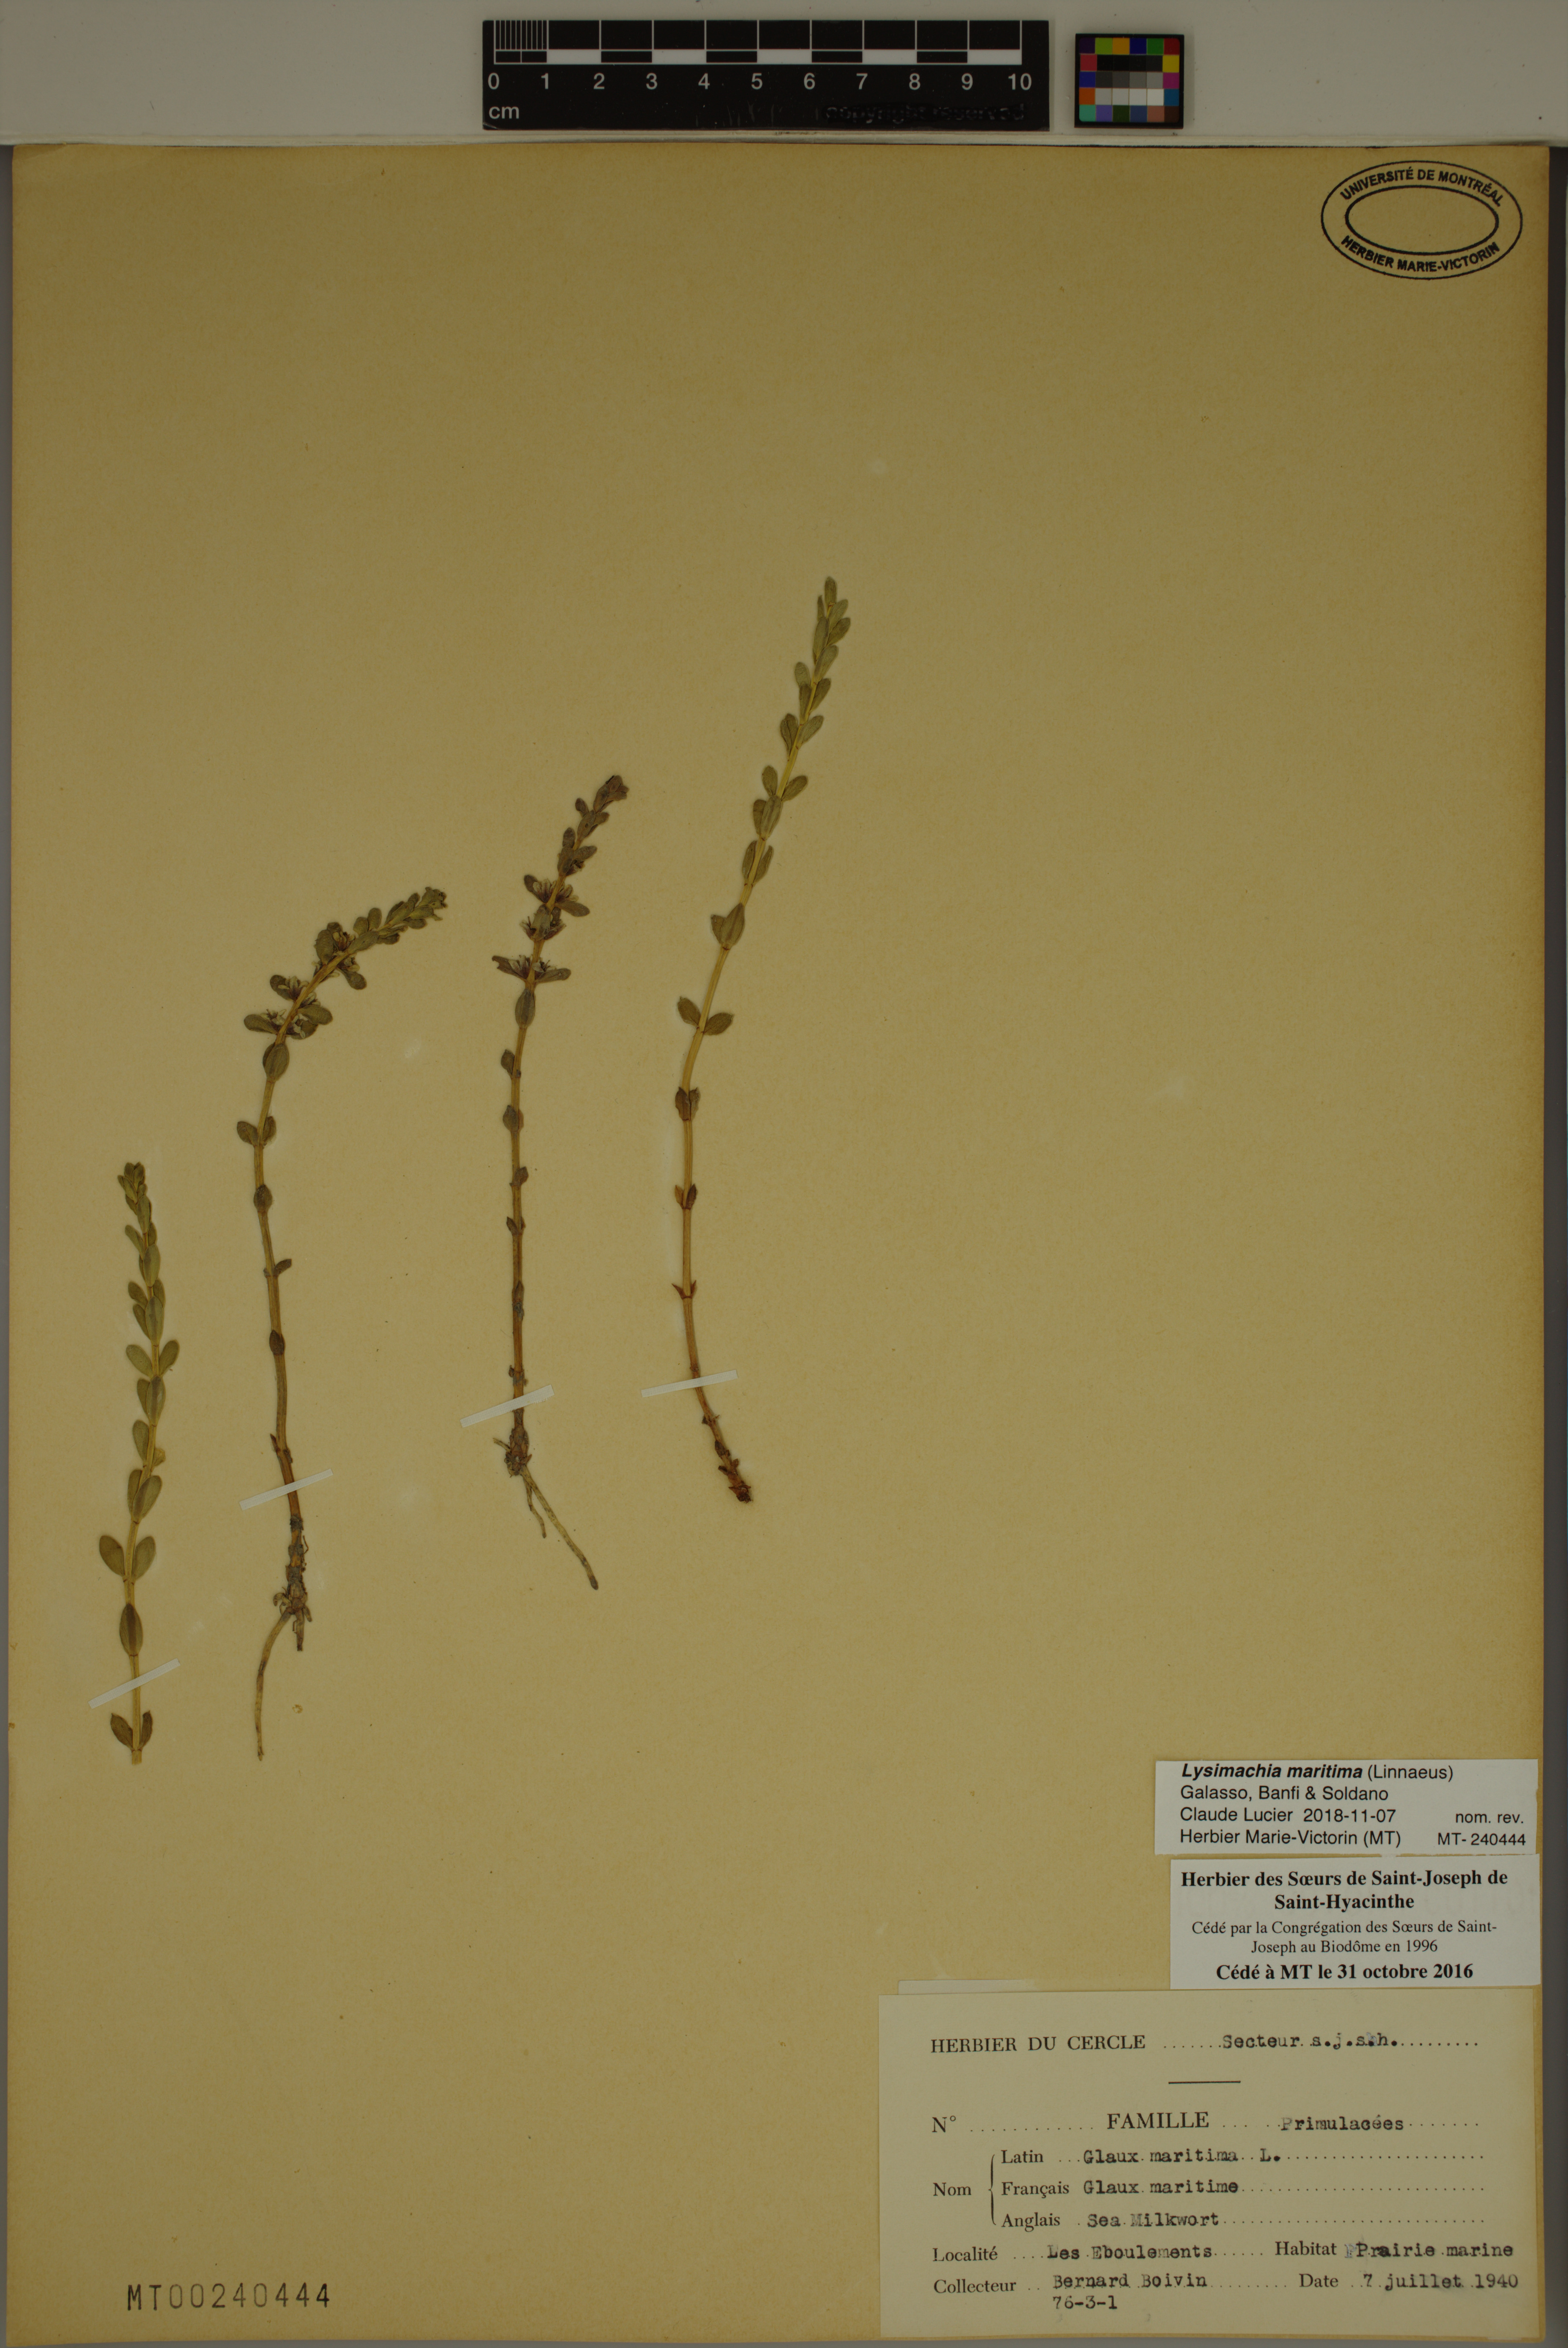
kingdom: Plantae
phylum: Tracheophyta
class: Magnoliopsida
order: Ericales
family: Primulaceae
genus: Lysimachia
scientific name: Lysimachia maritima
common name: Sea milkwort
